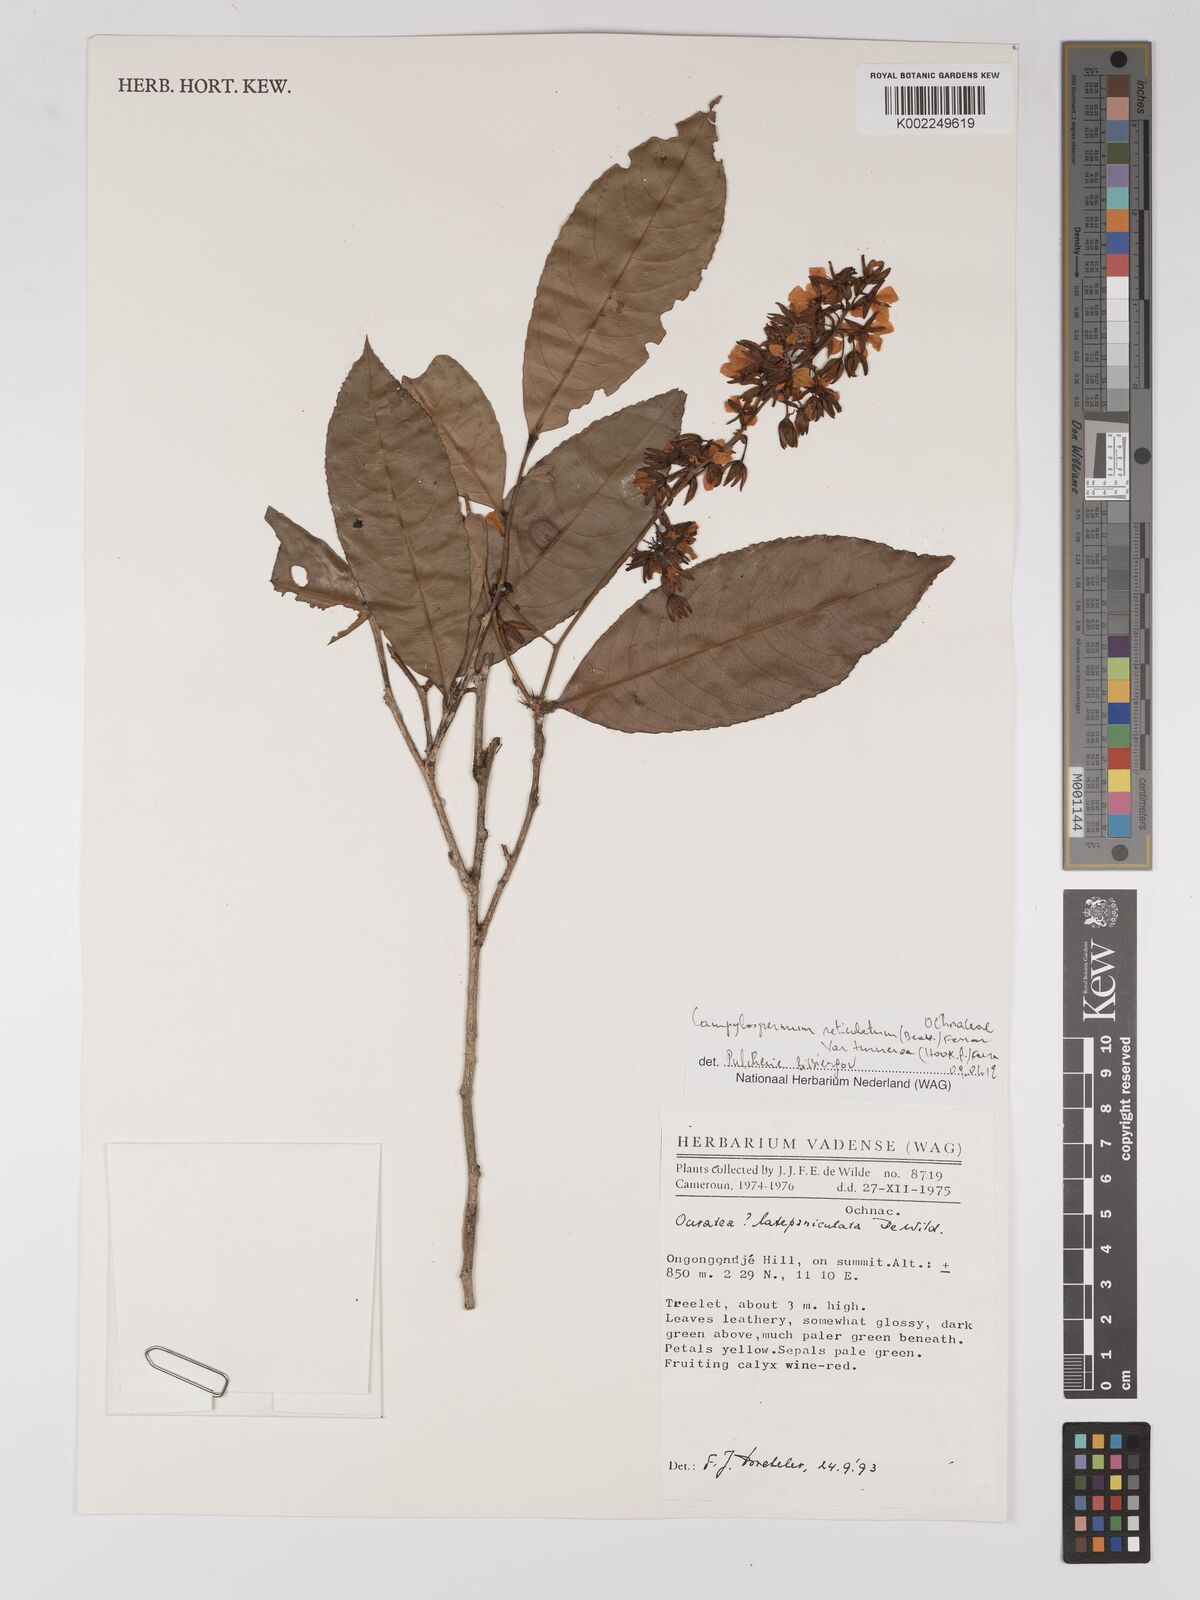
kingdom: Plantae
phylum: Tracheophyta
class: Magnoliopsida
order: Malpighiales
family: Ochnaceae
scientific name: Ochnaceae
